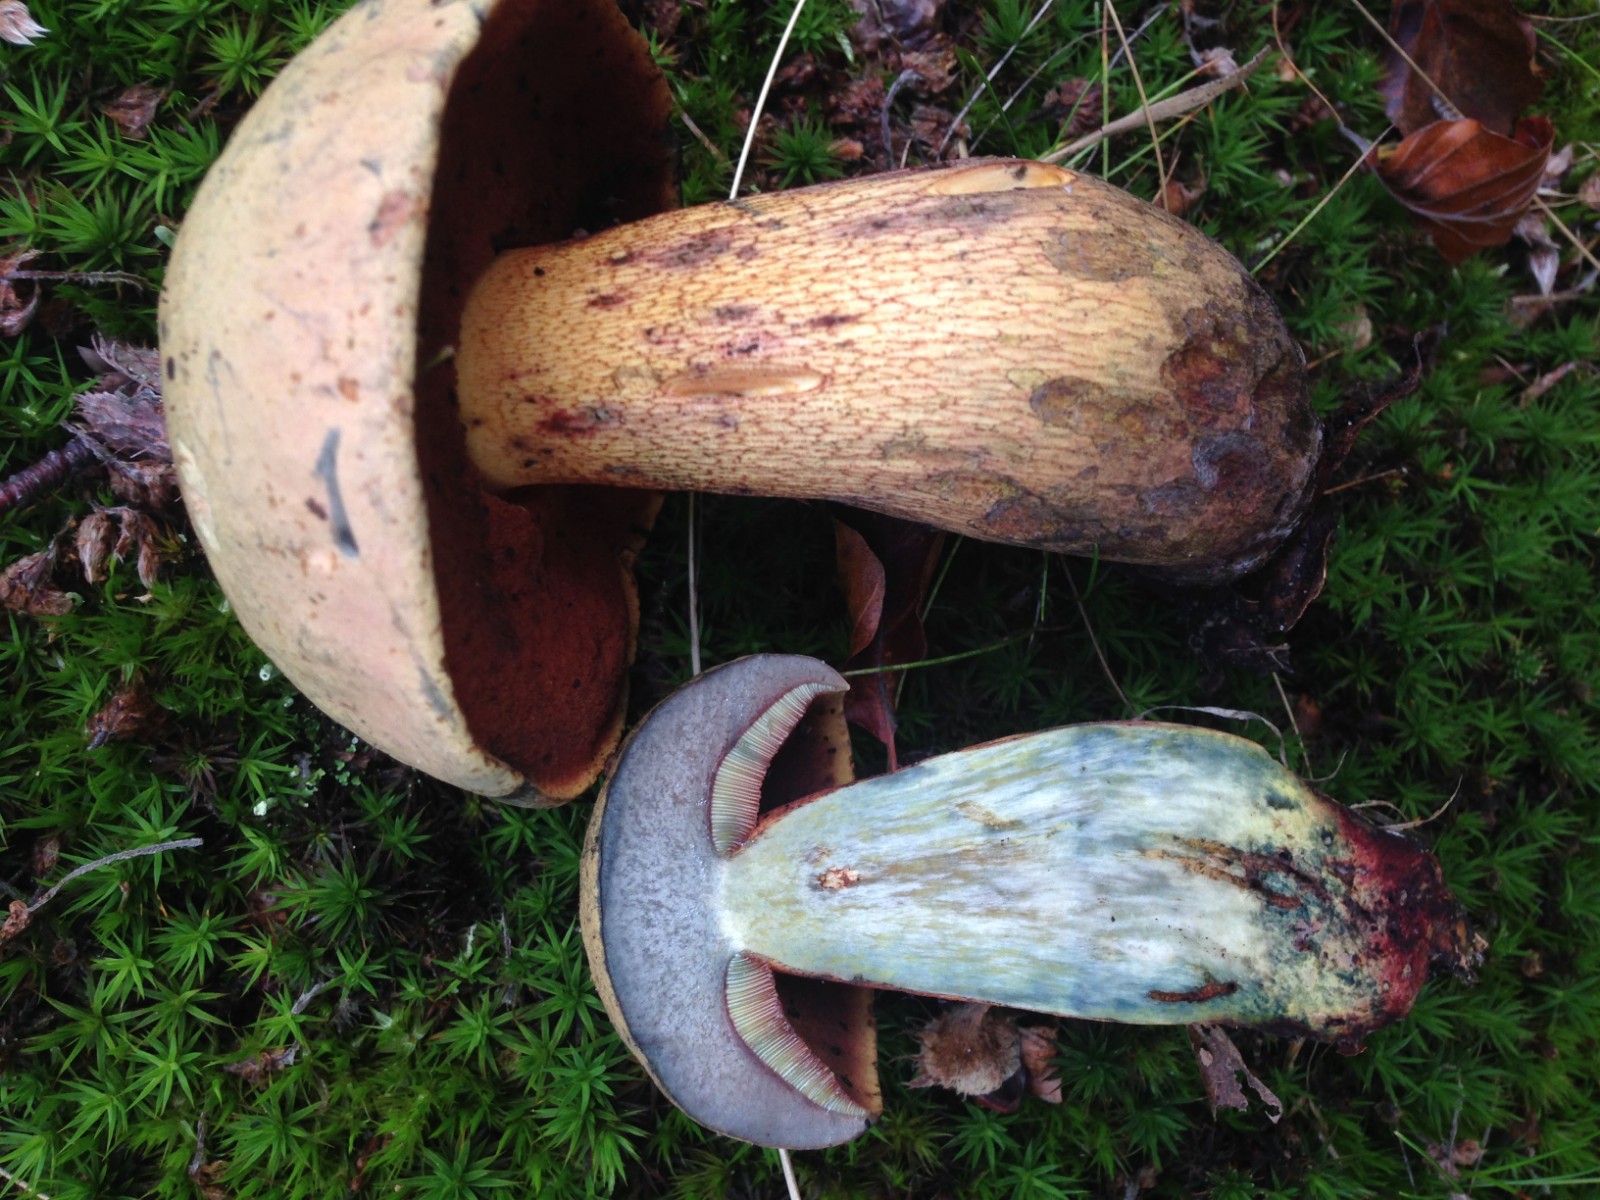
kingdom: Fungi
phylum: Basidiomycota
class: Agaricomycetes
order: Boletales
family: Boletaceae
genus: Suillellus
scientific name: Suillellus luridus
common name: netstokket indigorørhat
